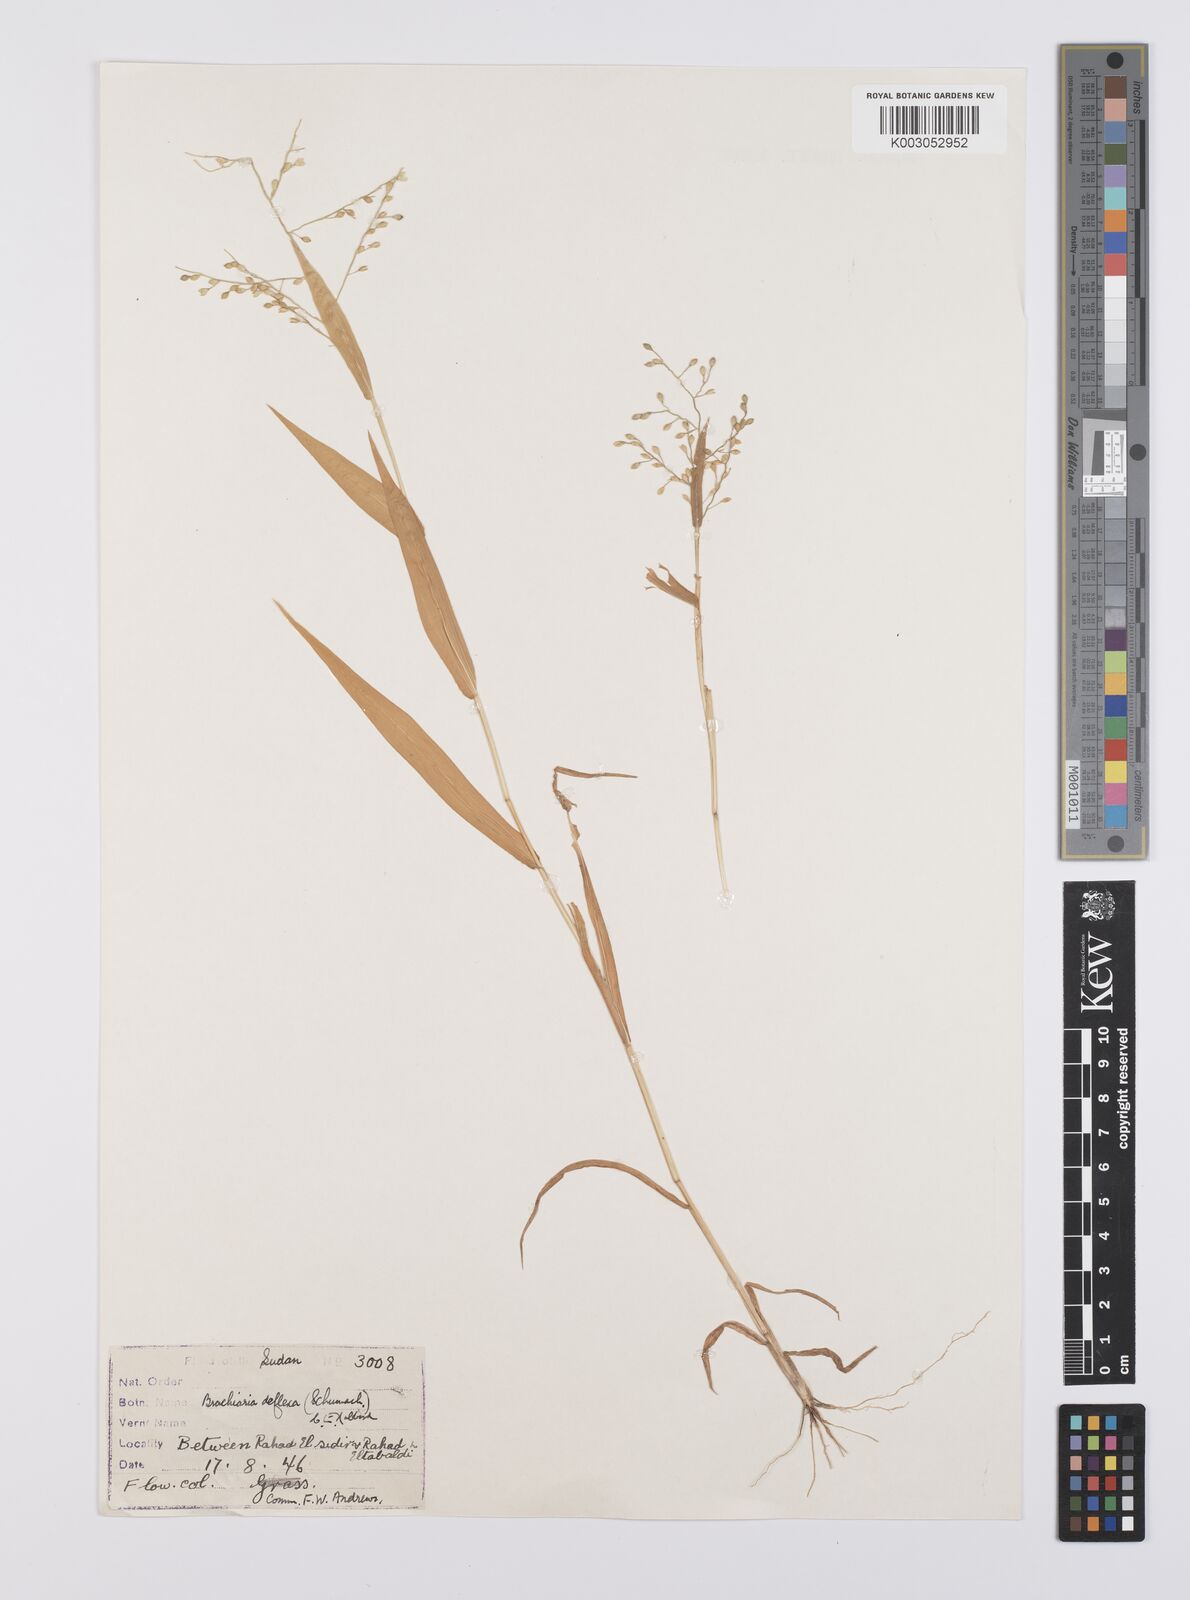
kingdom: Plantae
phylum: Tracheophyta
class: Liliopsida
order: Poales
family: Poaceae
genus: Urochloa
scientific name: Urochloa deflexa
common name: Guinea millet
